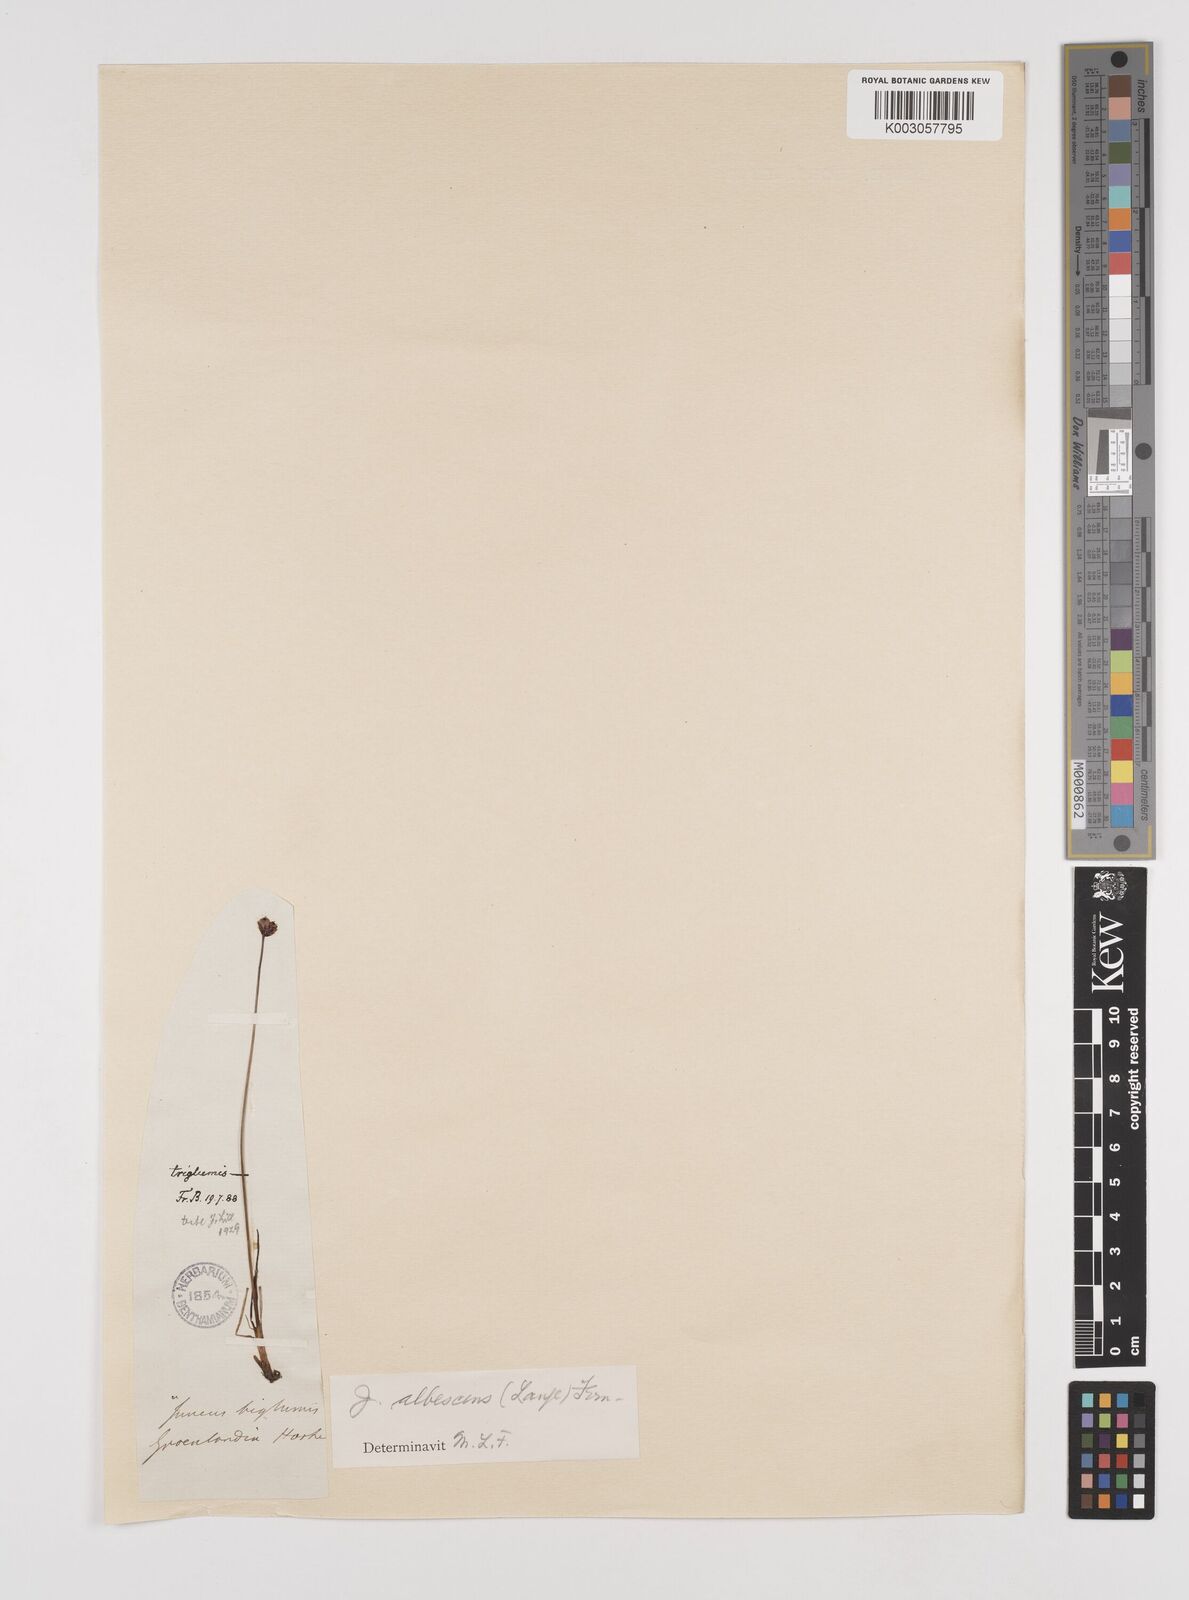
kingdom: Plantae
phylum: Tracheophyta
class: Liliopsida
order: Poales
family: Juncaceae
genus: Juncus
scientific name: Juncus triglumis
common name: Three-flowered rush
